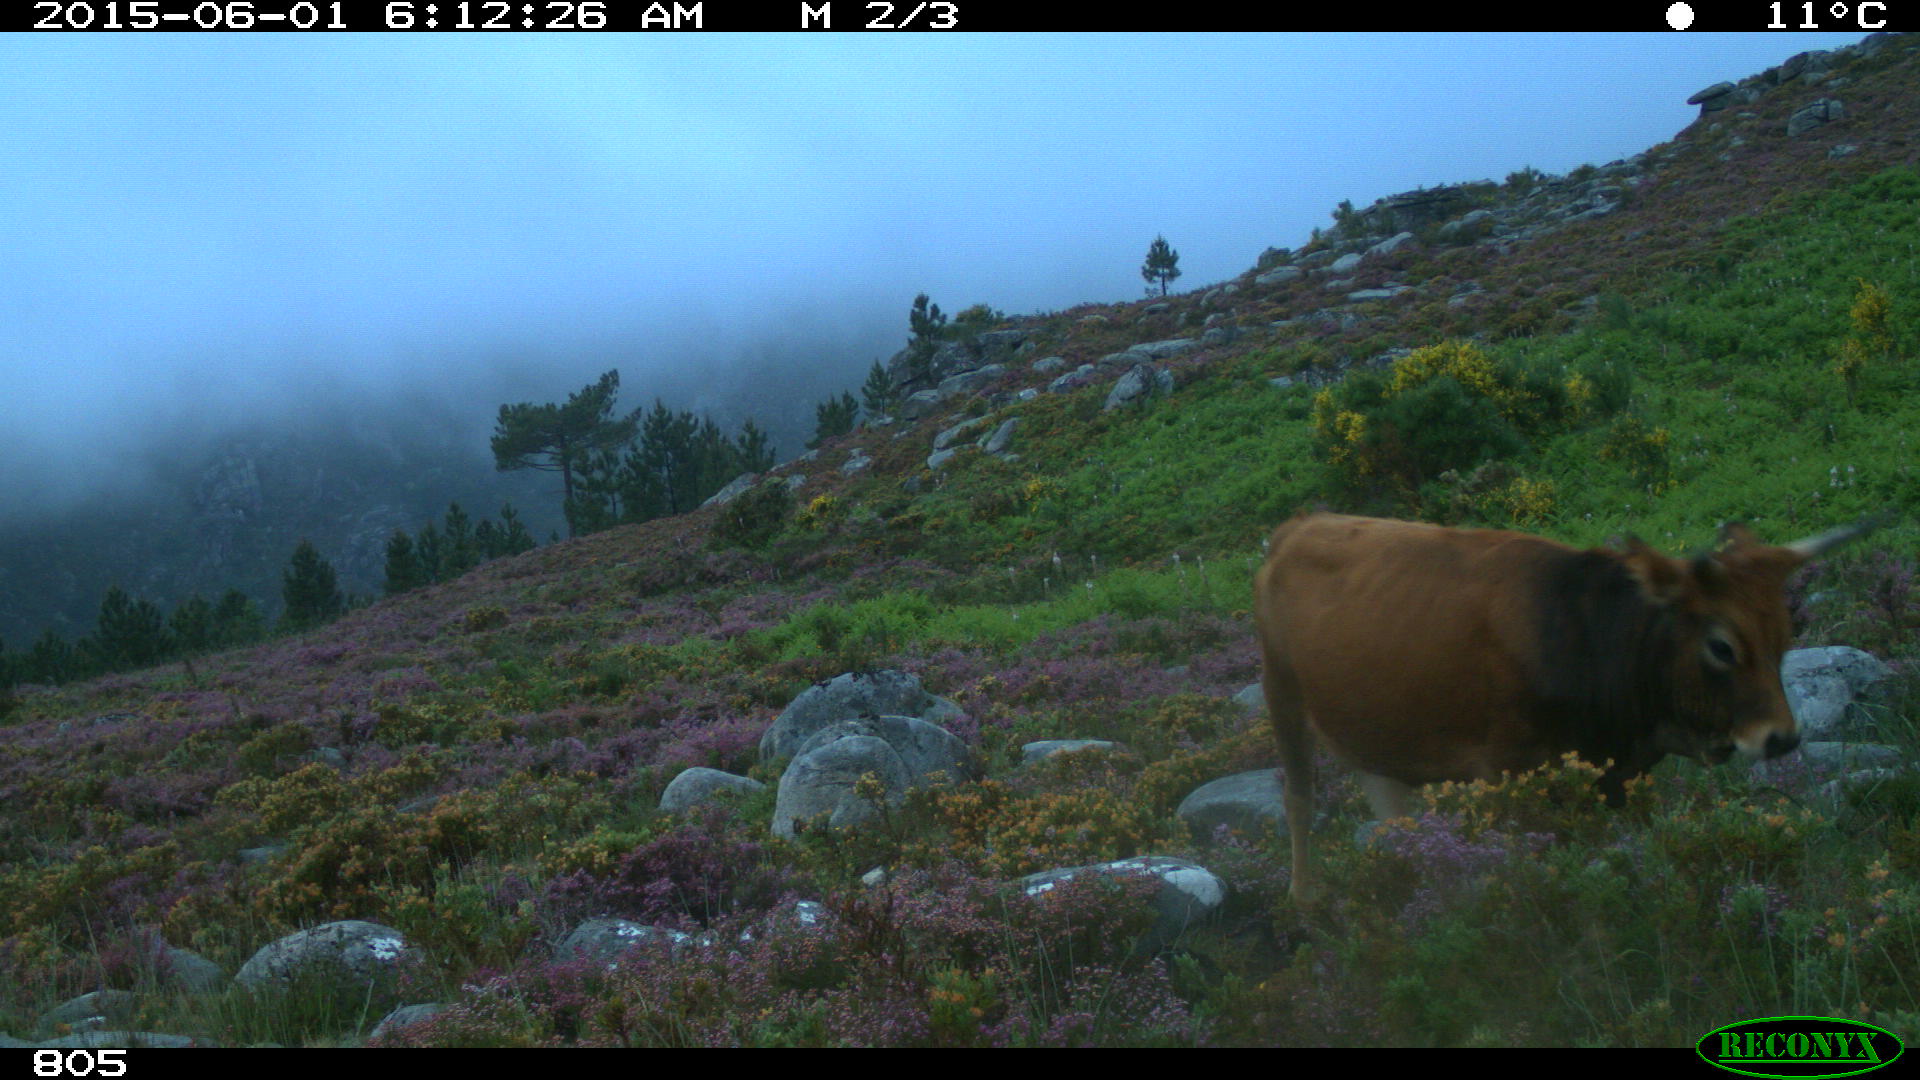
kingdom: Animalia
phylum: Chordata
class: Mammalia
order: Artiodactyla
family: Bovidae
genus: Bos
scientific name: Bos taurus
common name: Domesticated cattle
